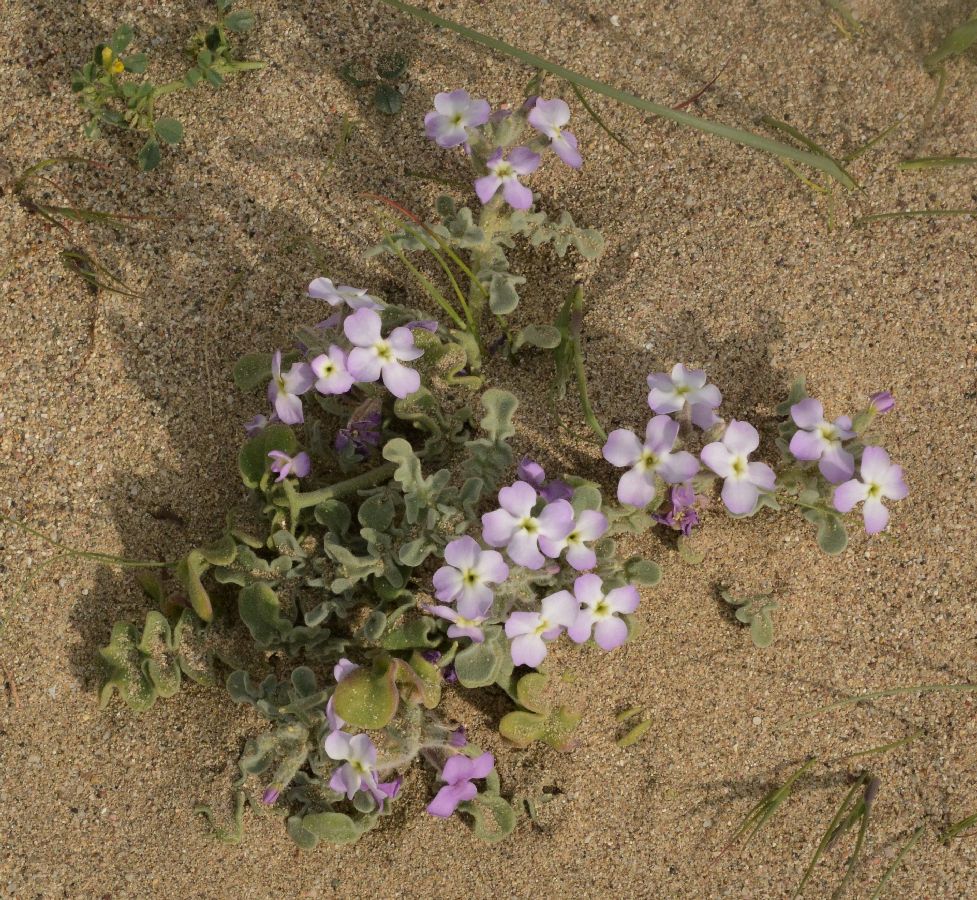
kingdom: Plantae
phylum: Tracheophyta
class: Magnoliopsida
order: Brassicales
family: Brassicaceae
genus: Matthiola
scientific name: Matthiola tricuspidata
